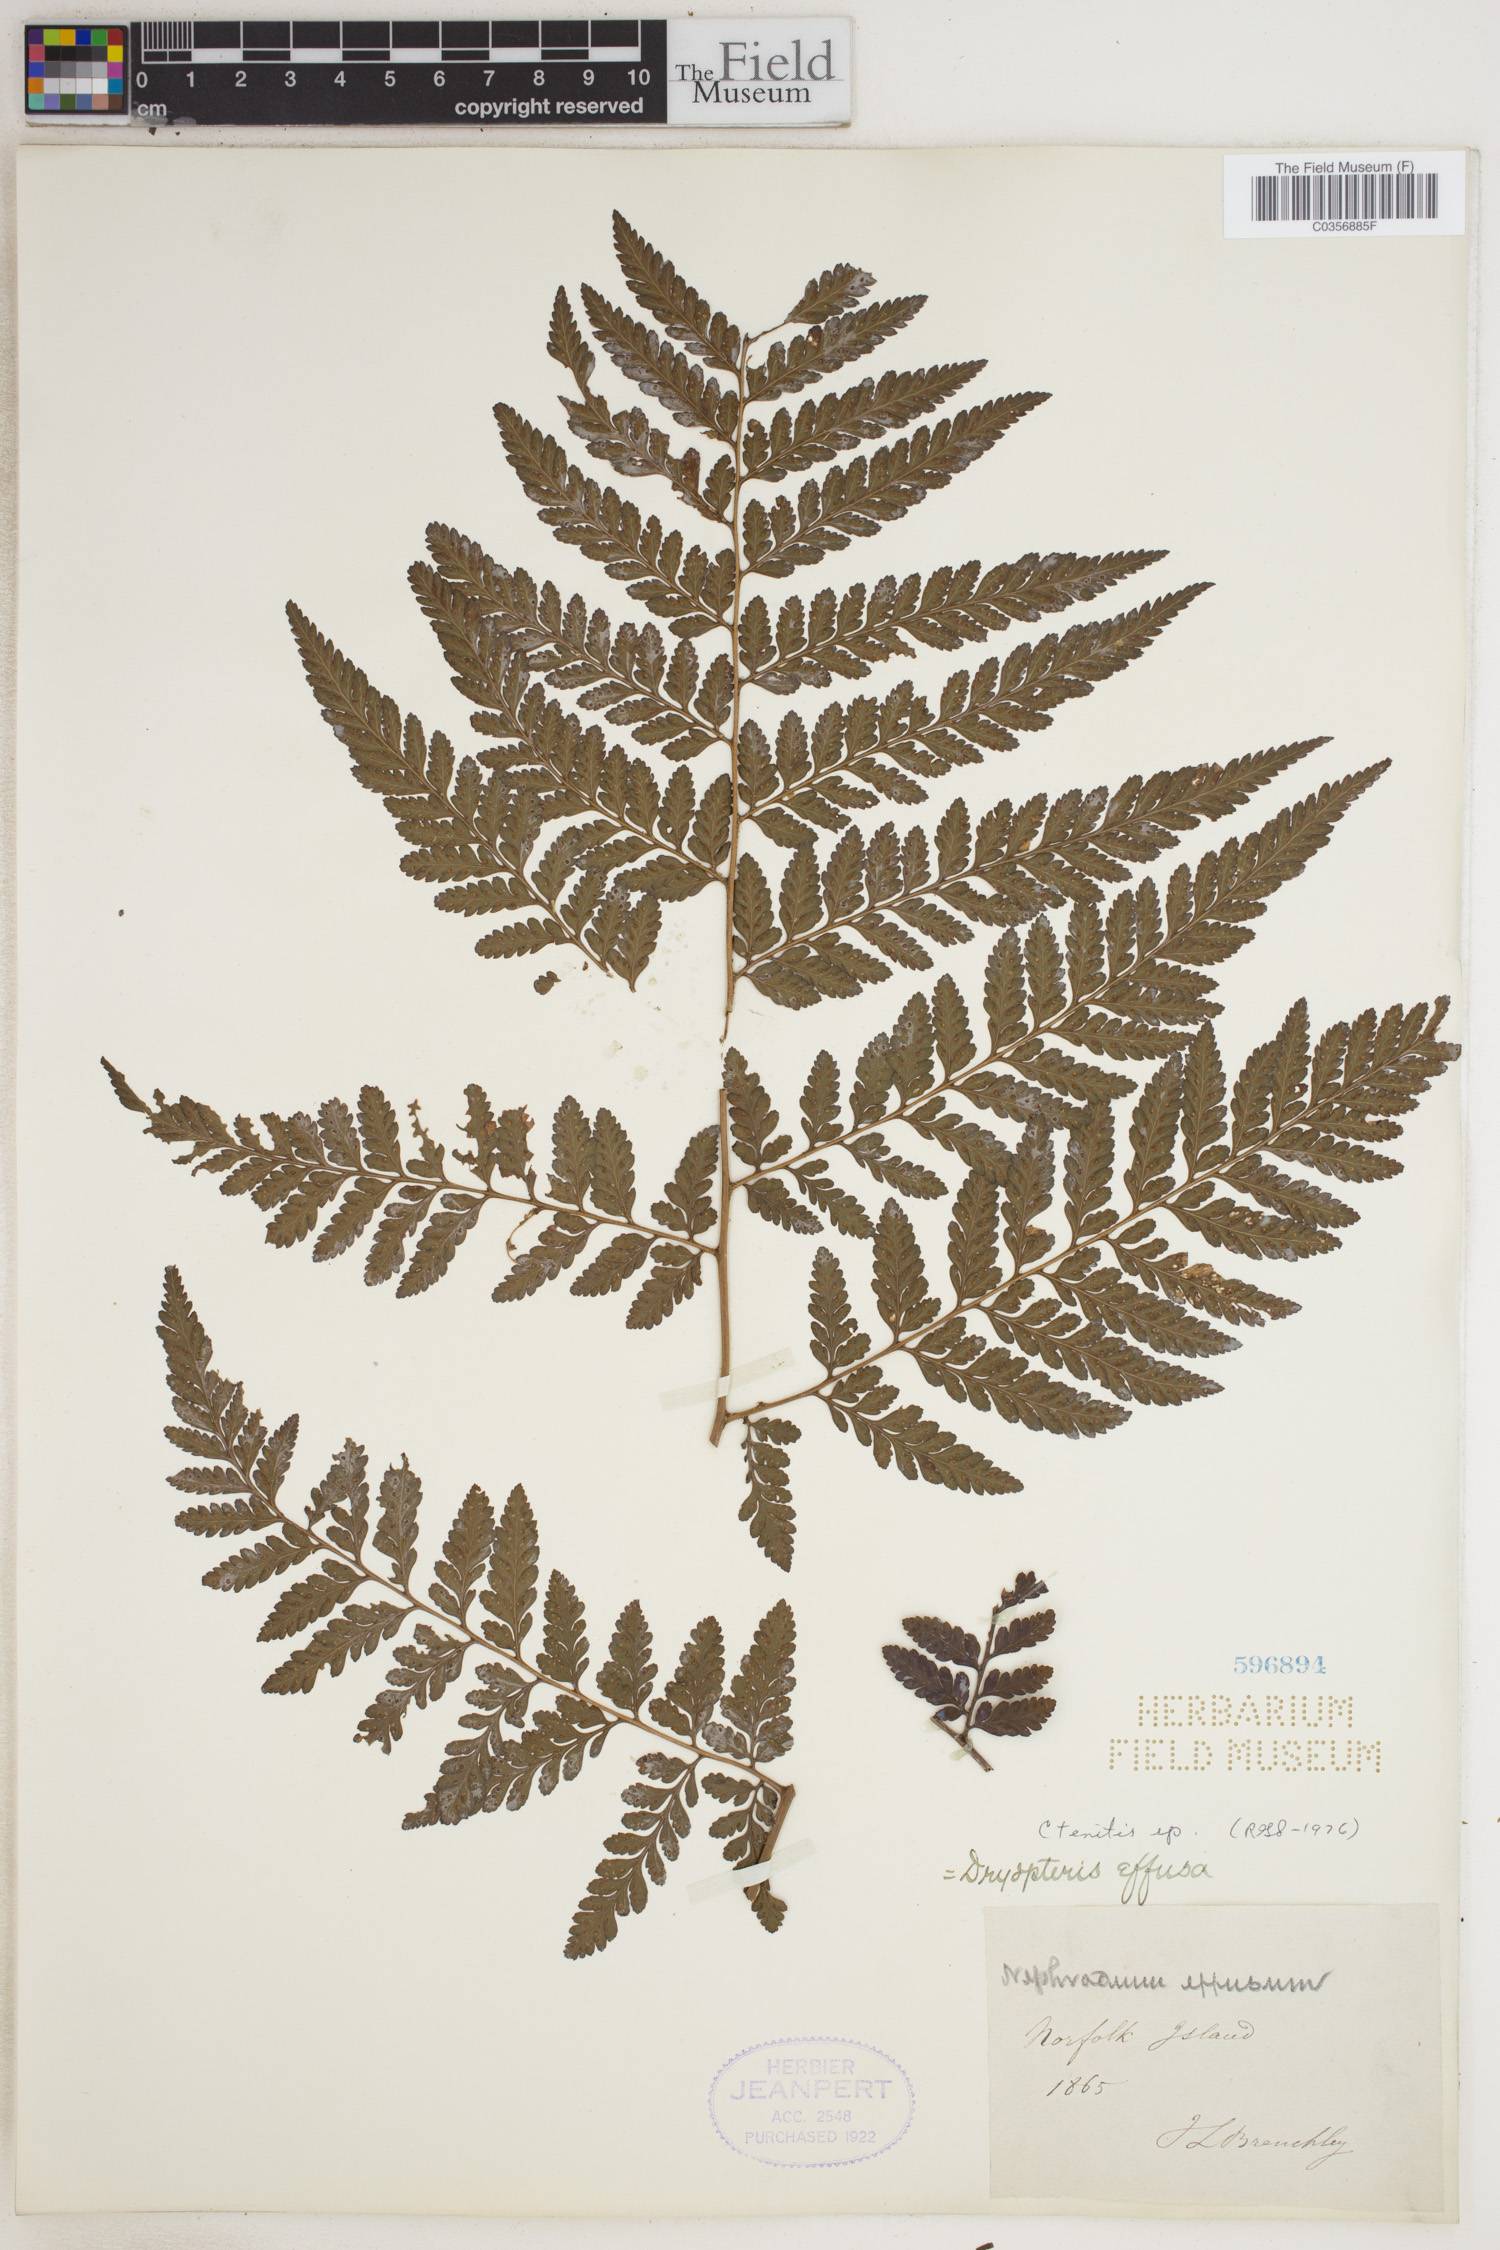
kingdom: Plantae
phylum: Tracheophyta
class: Polypodiopsida
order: Polypodiales
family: Dryopteridaceae
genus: Ctenitis
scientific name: Ctenitis
